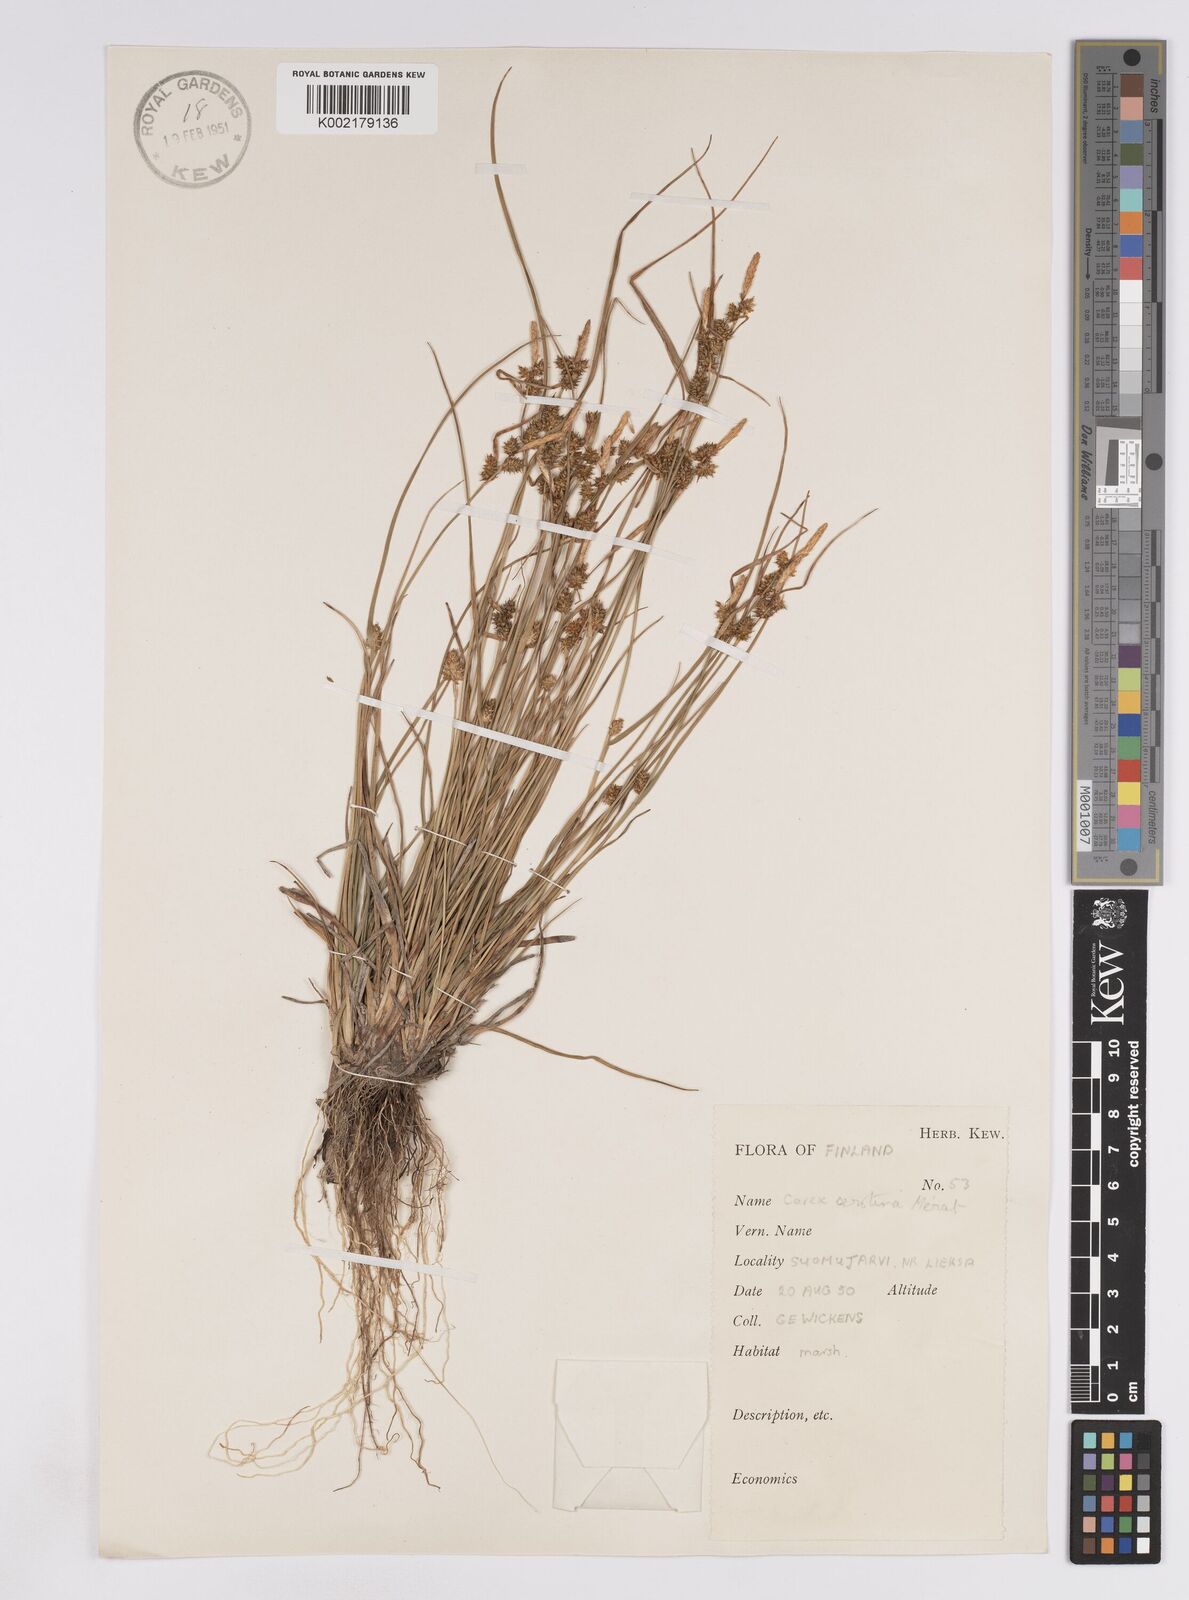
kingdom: Plantae
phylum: Tracheophyta
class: Liliopsida
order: Poales
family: Cyperaceae
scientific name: Cyperaceae
